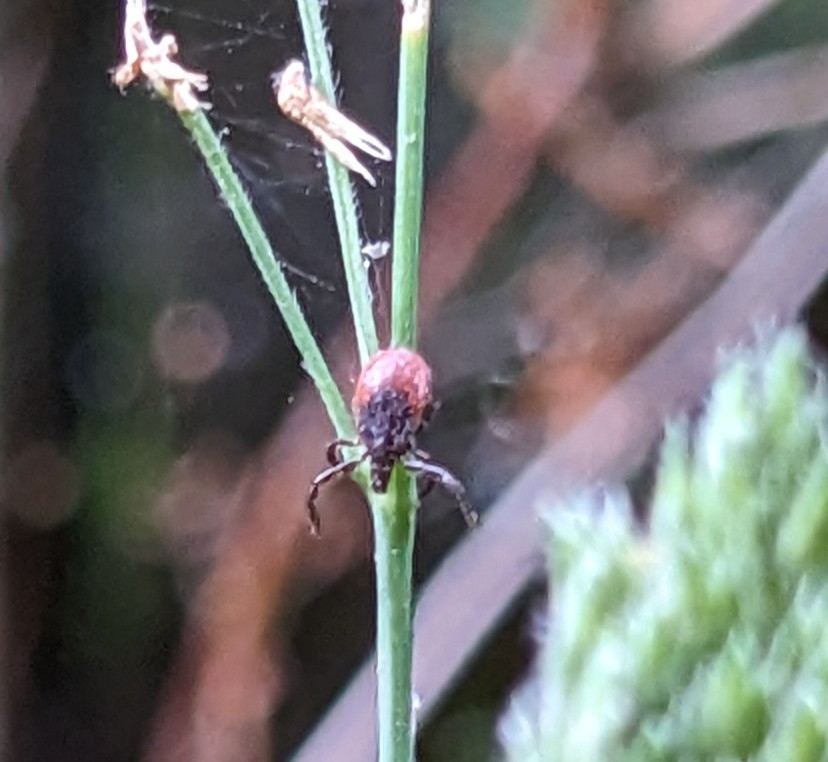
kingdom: Animalia
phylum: Arthropoda
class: Arachnida
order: Ixodida
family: Ixodidae
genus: Ixodes
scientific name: Ixodes ricinus
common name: Skovflåt
